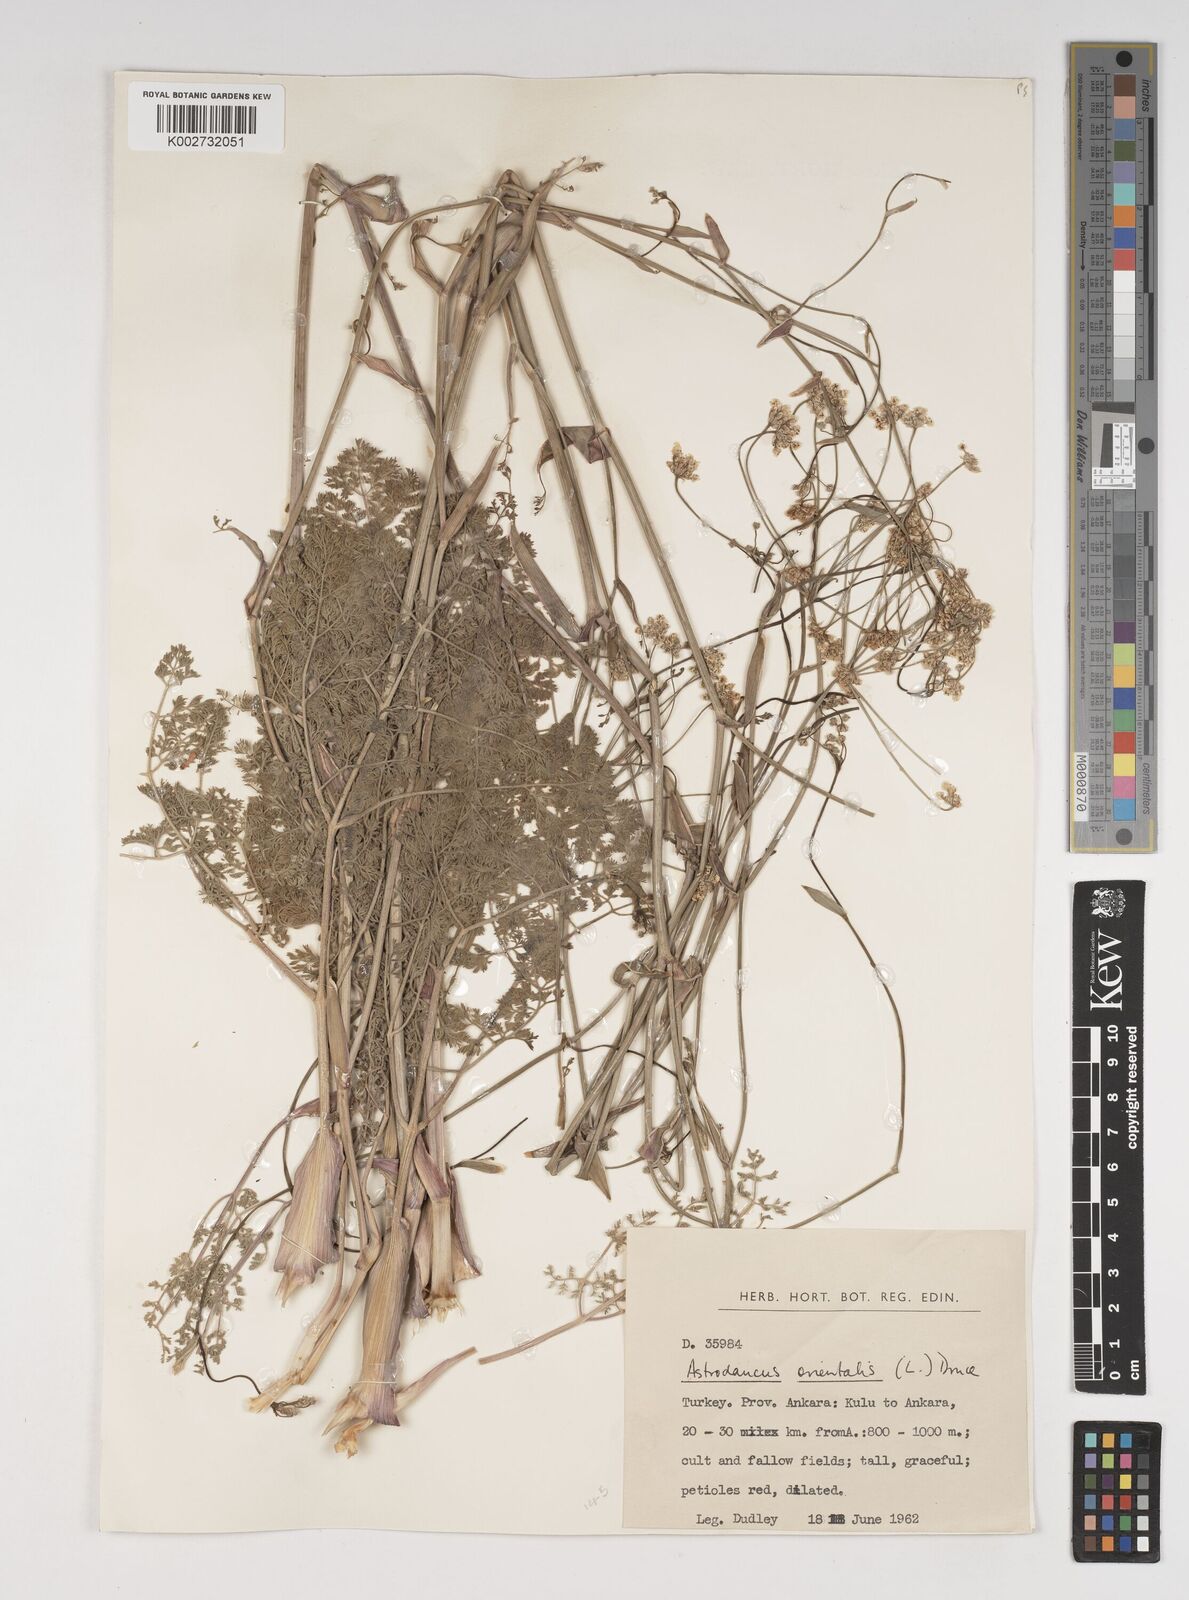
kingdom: Plantae
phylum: Tracheophyta
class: Magnoliopsida
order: Apiales
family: Apiaceae
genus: Astrodaucus
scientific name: Astrodaucus
